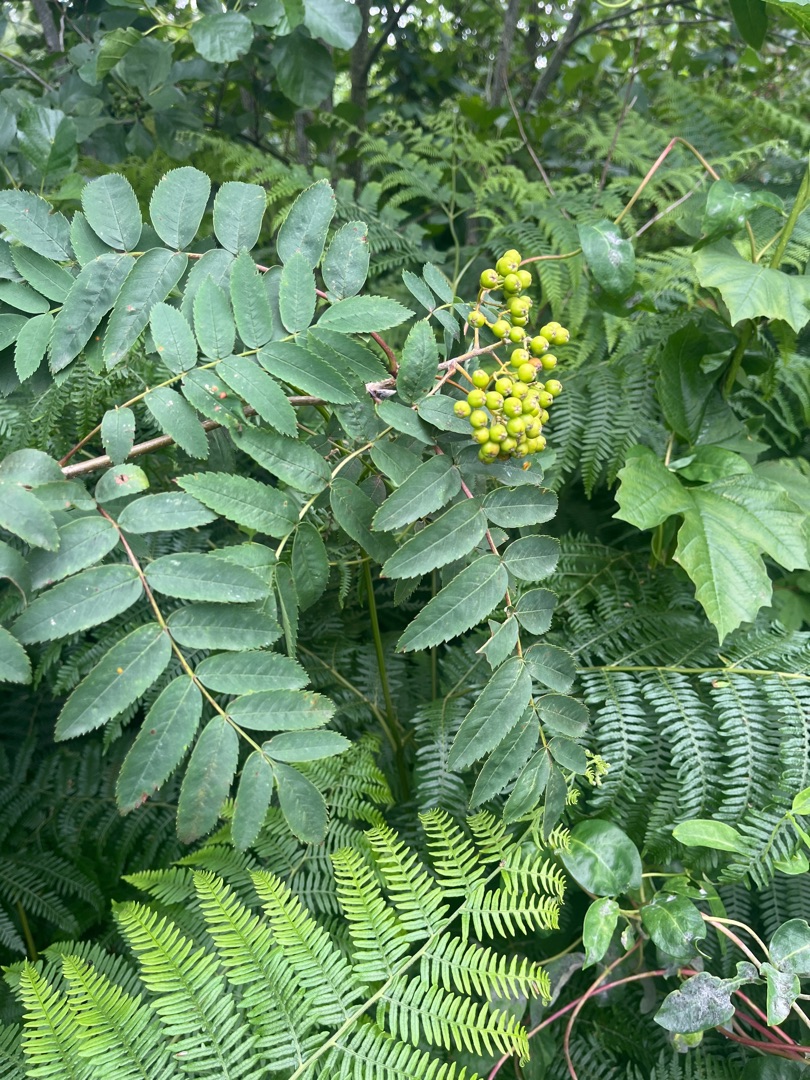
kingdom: Plantae
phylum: Tracheophyta
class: Magnoliopsida
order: Rosales
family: Rosaceae
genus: Sorbus
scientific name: Sorbus aucuparia
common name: Almindelig røn
